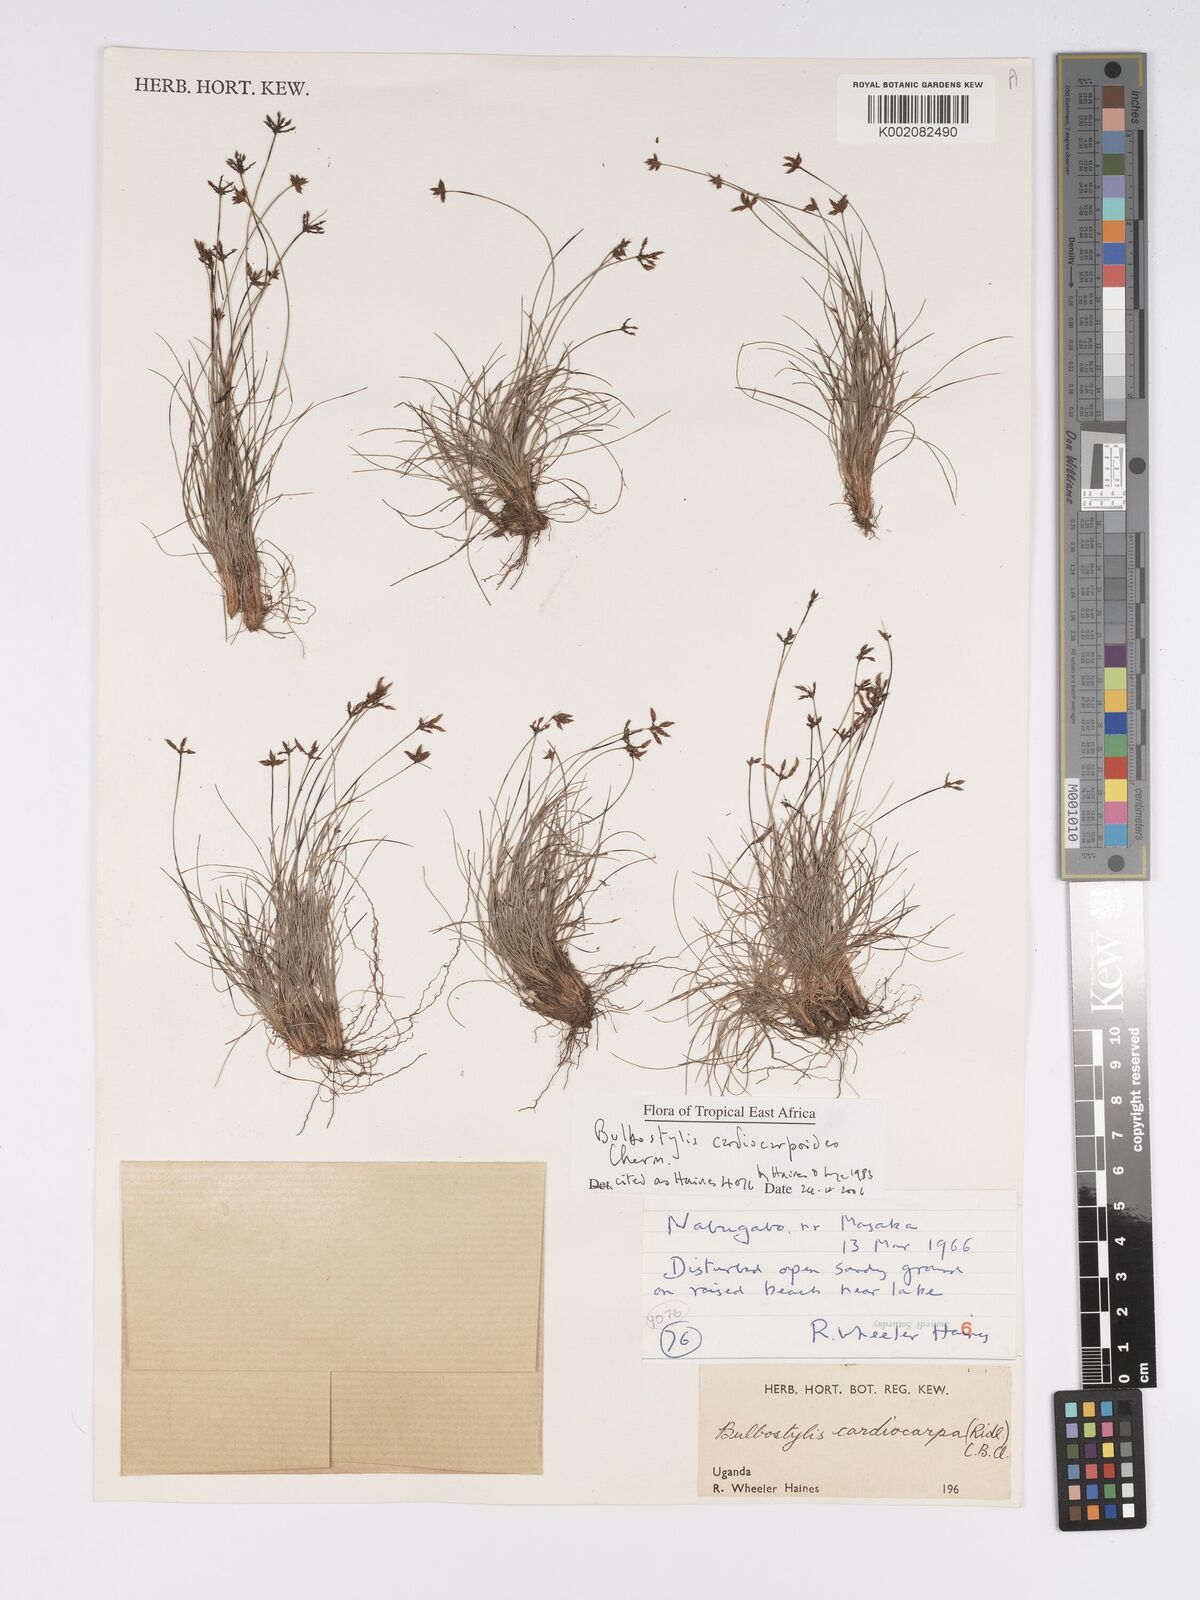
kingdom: Plantae
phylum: Tracheophyta
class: Liliopsida
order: Poales
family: Cyperaceae
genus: Bulbostylis
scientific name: Bulbostylis cardiocarpoides
